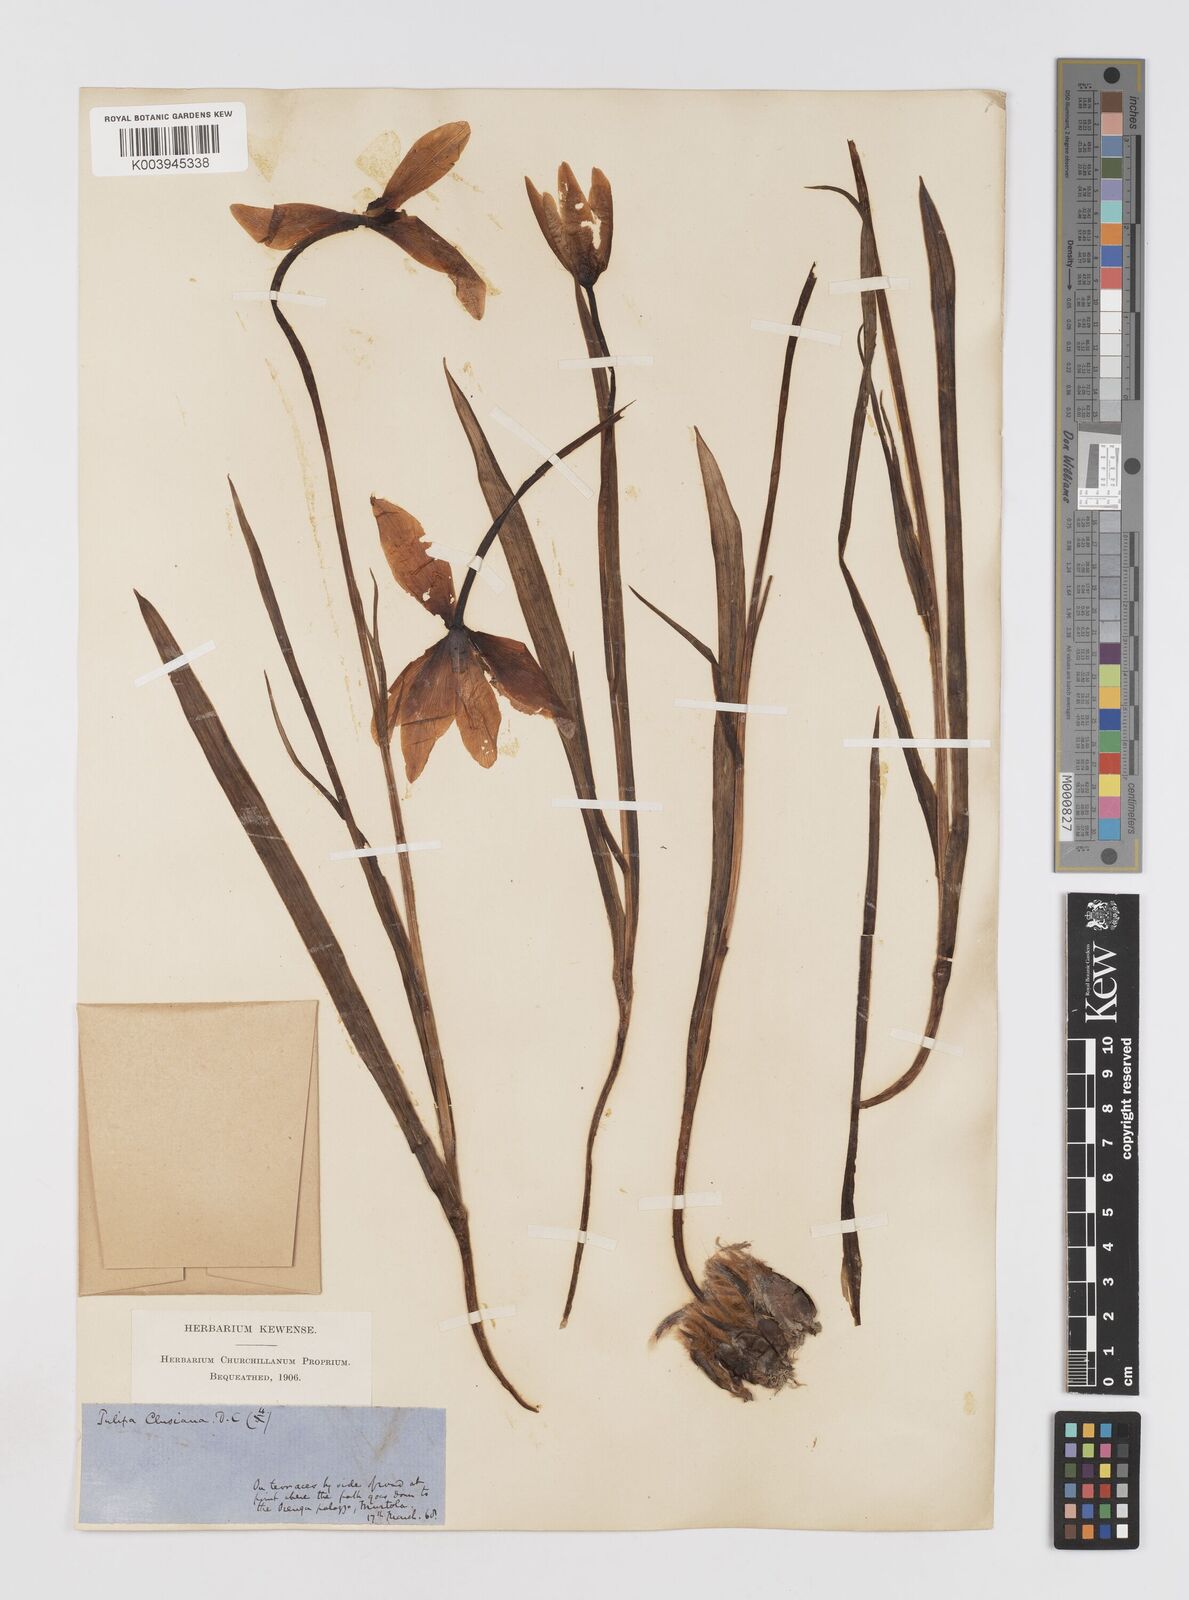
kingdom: Plantae
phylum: Tracheophyta
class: Liliopsida
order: Liliales
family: Liliaceae
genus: Tulipa
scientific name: Tulipa clusiana
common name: Lady tulip
